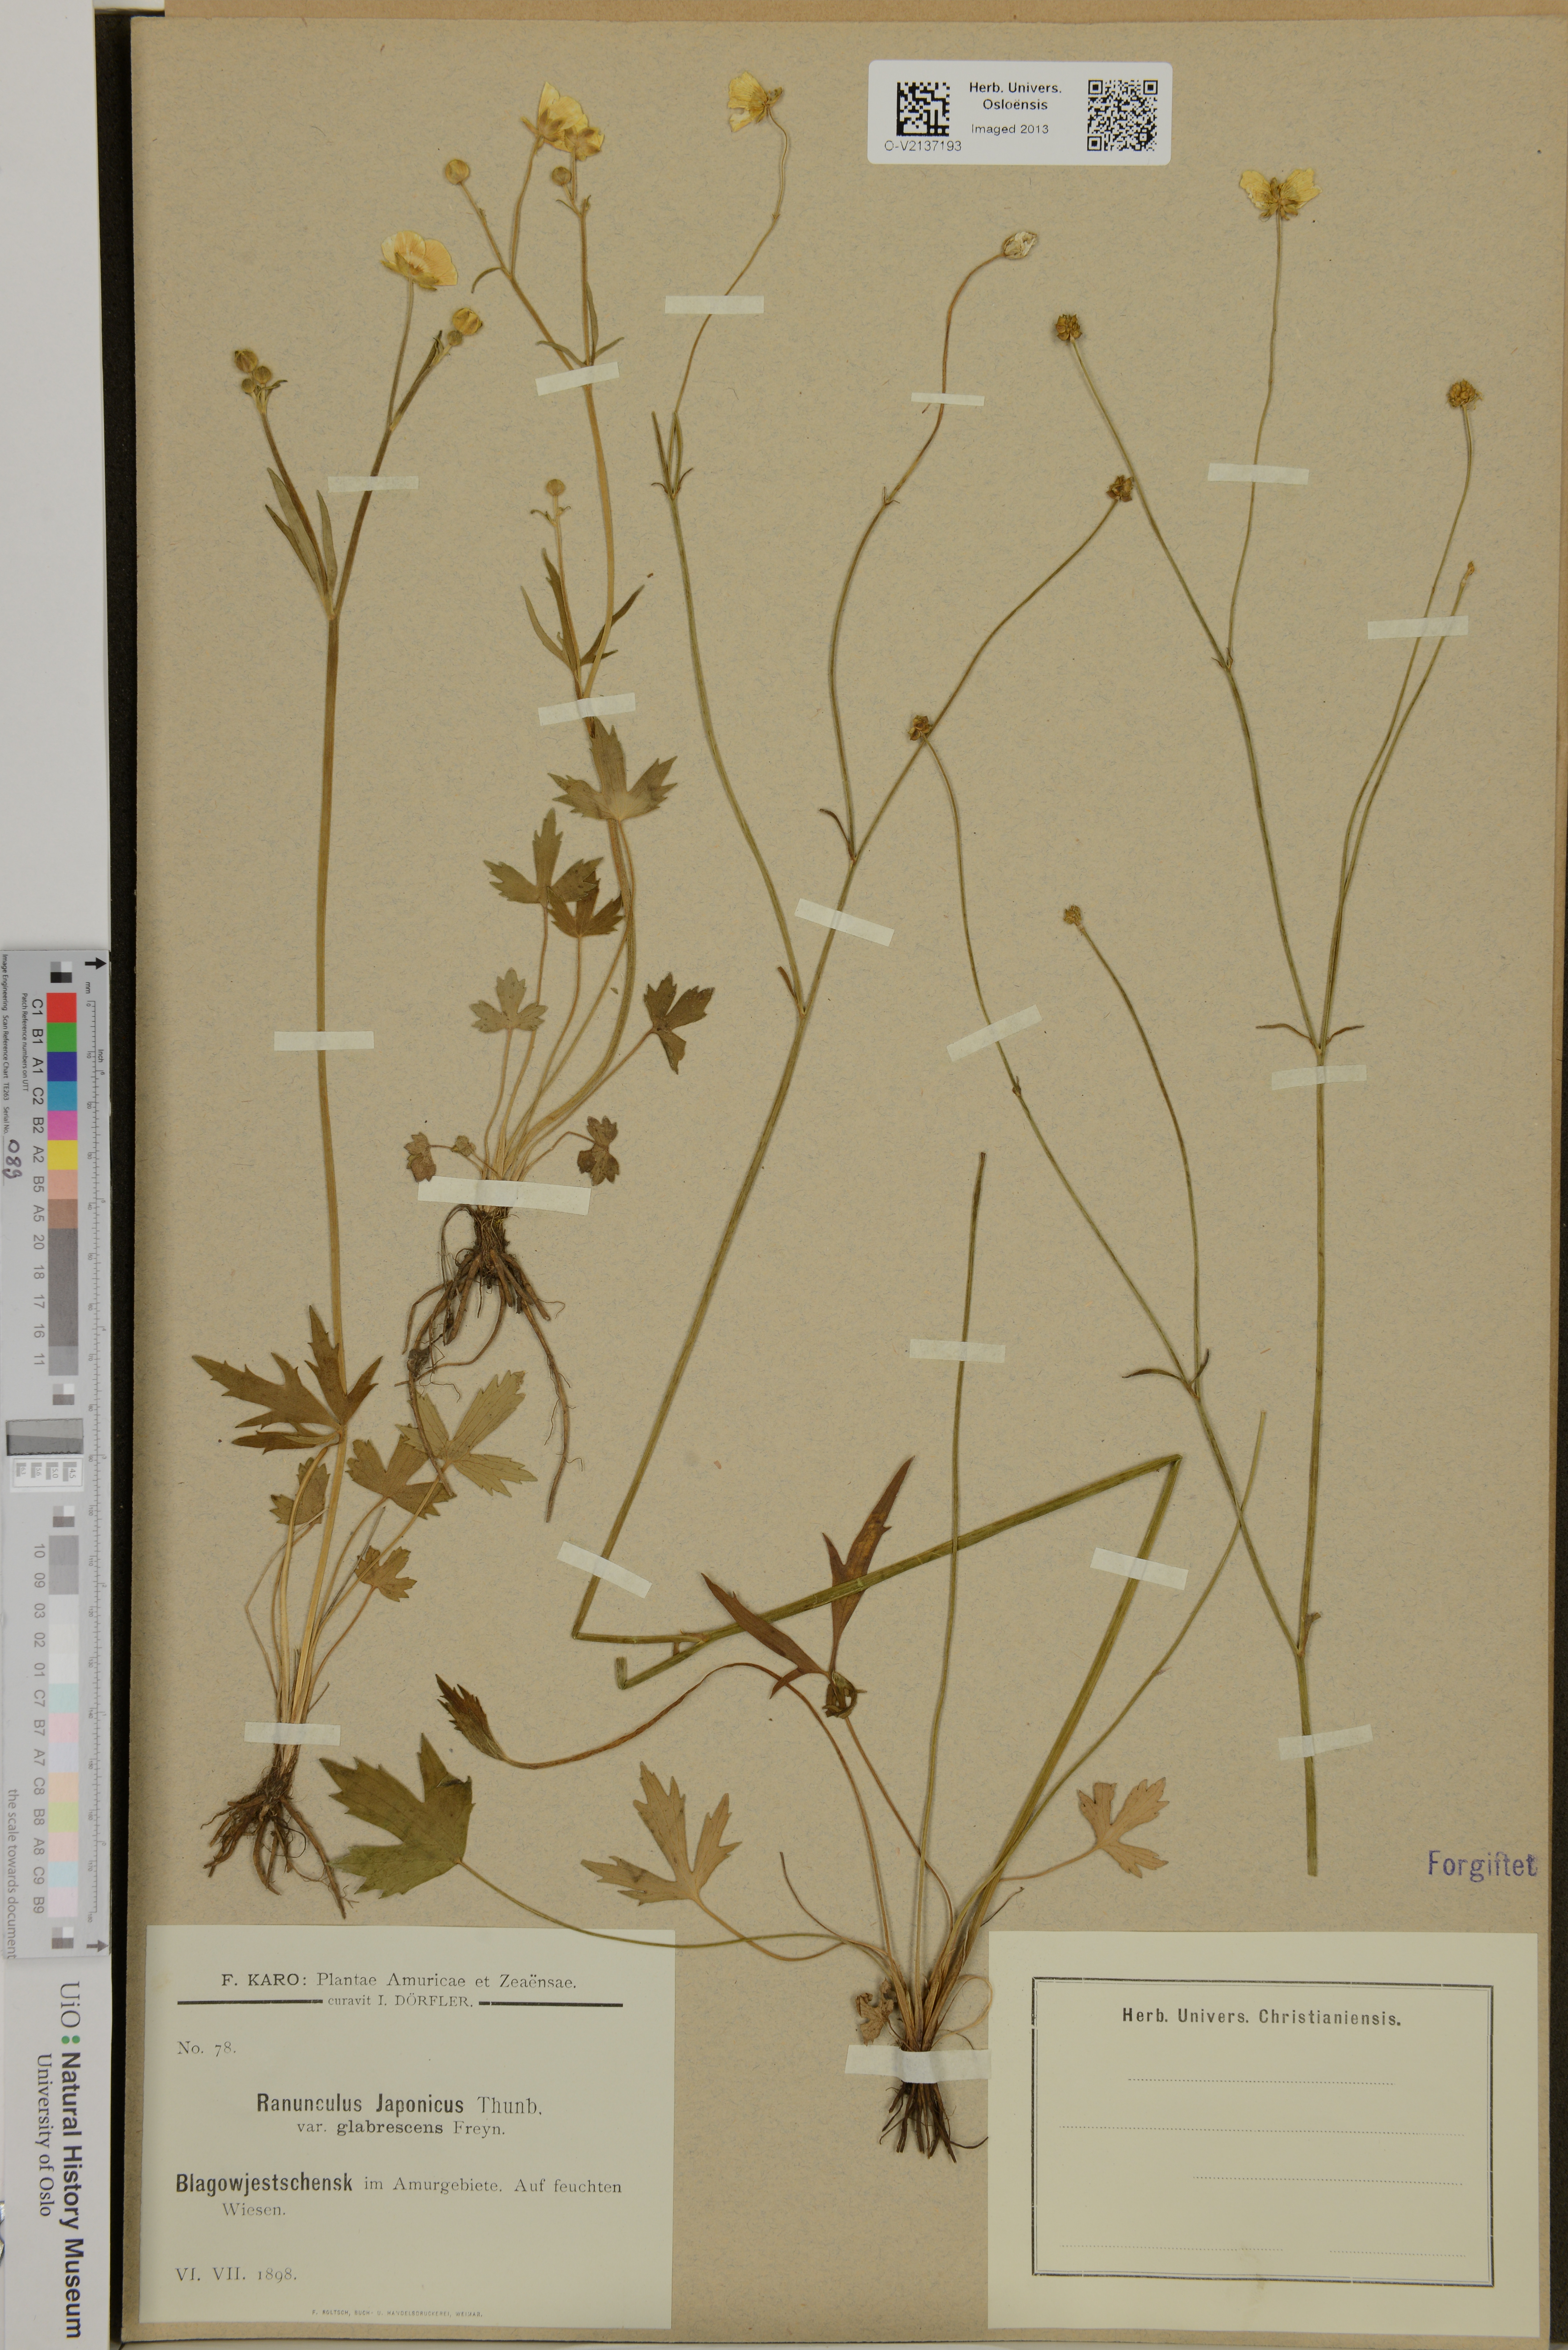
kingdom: Plantae
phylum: Tracheophyta
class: Magnoliopsida
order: Ranunculales
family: Ranunculaceae
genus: Ranunculus
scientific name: Ranunculus japonicus
